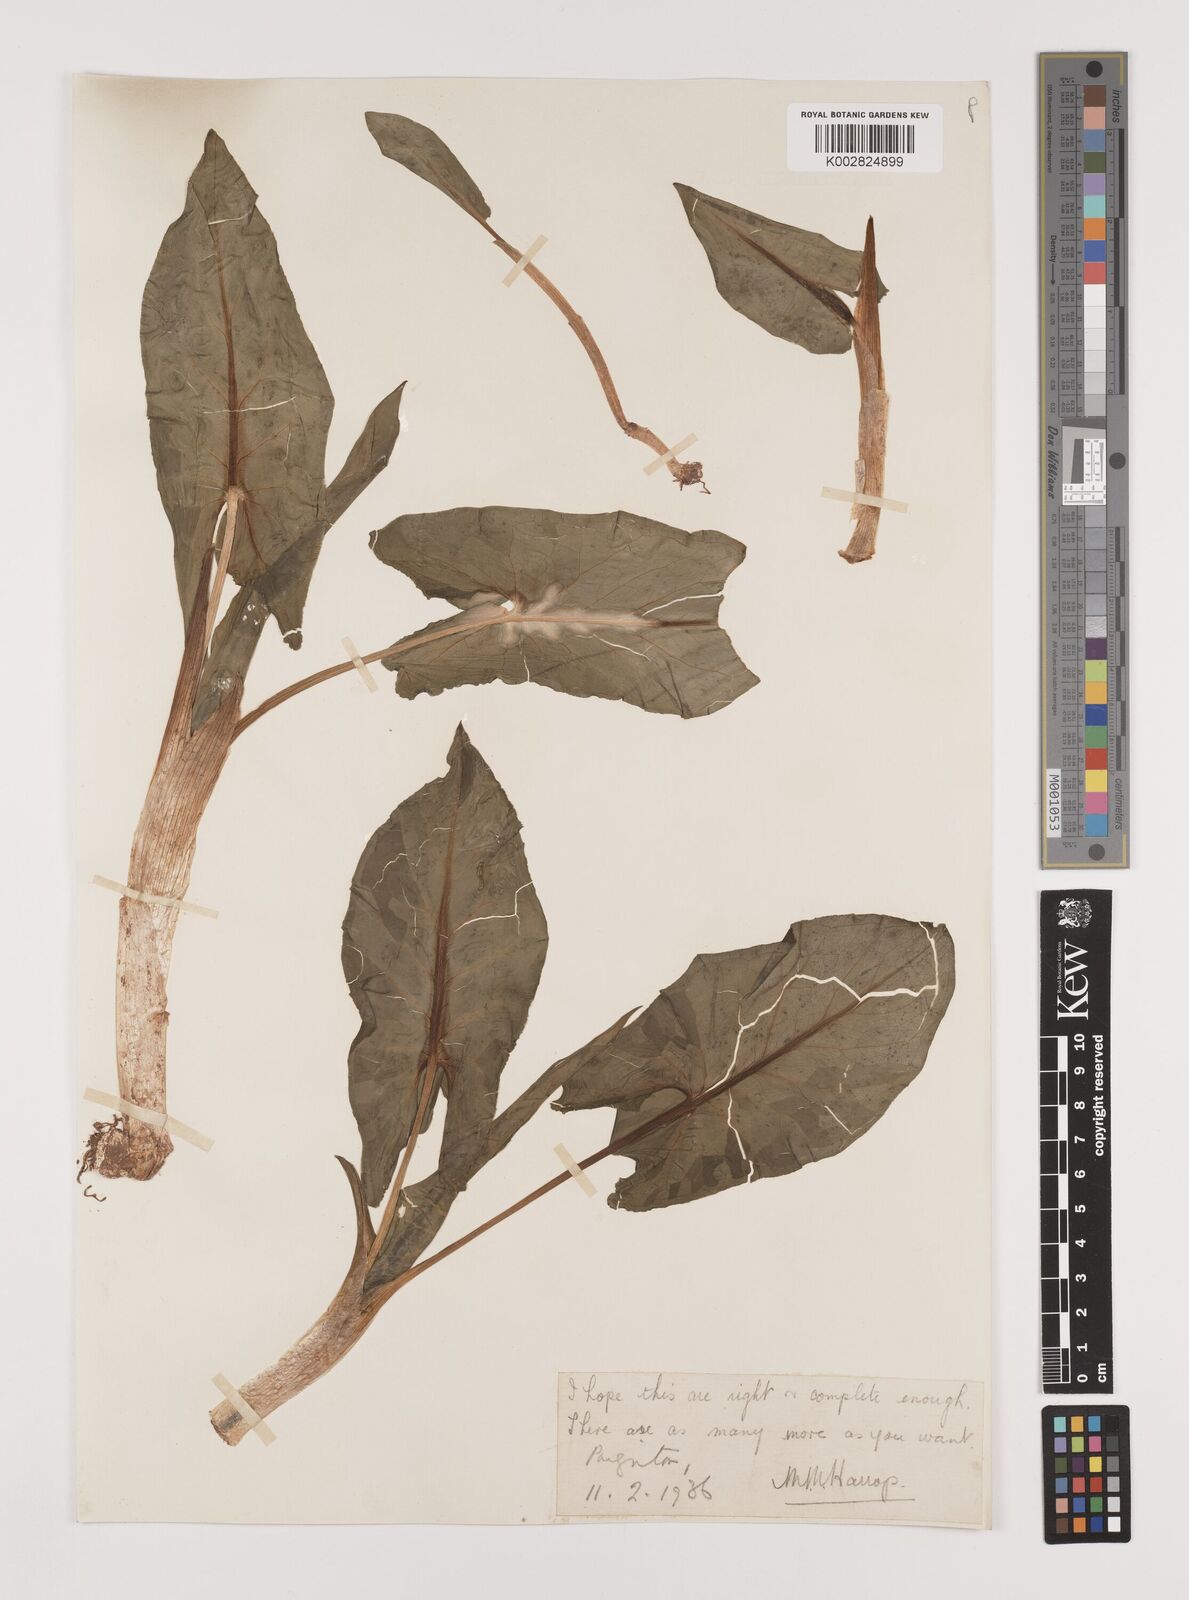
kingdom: Plantae
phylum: Tracheophyta
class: Liliopsida
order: Alismatales
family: Araceae
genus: Arum
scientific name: Arum italicum
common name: Italian lords-and-ladies
